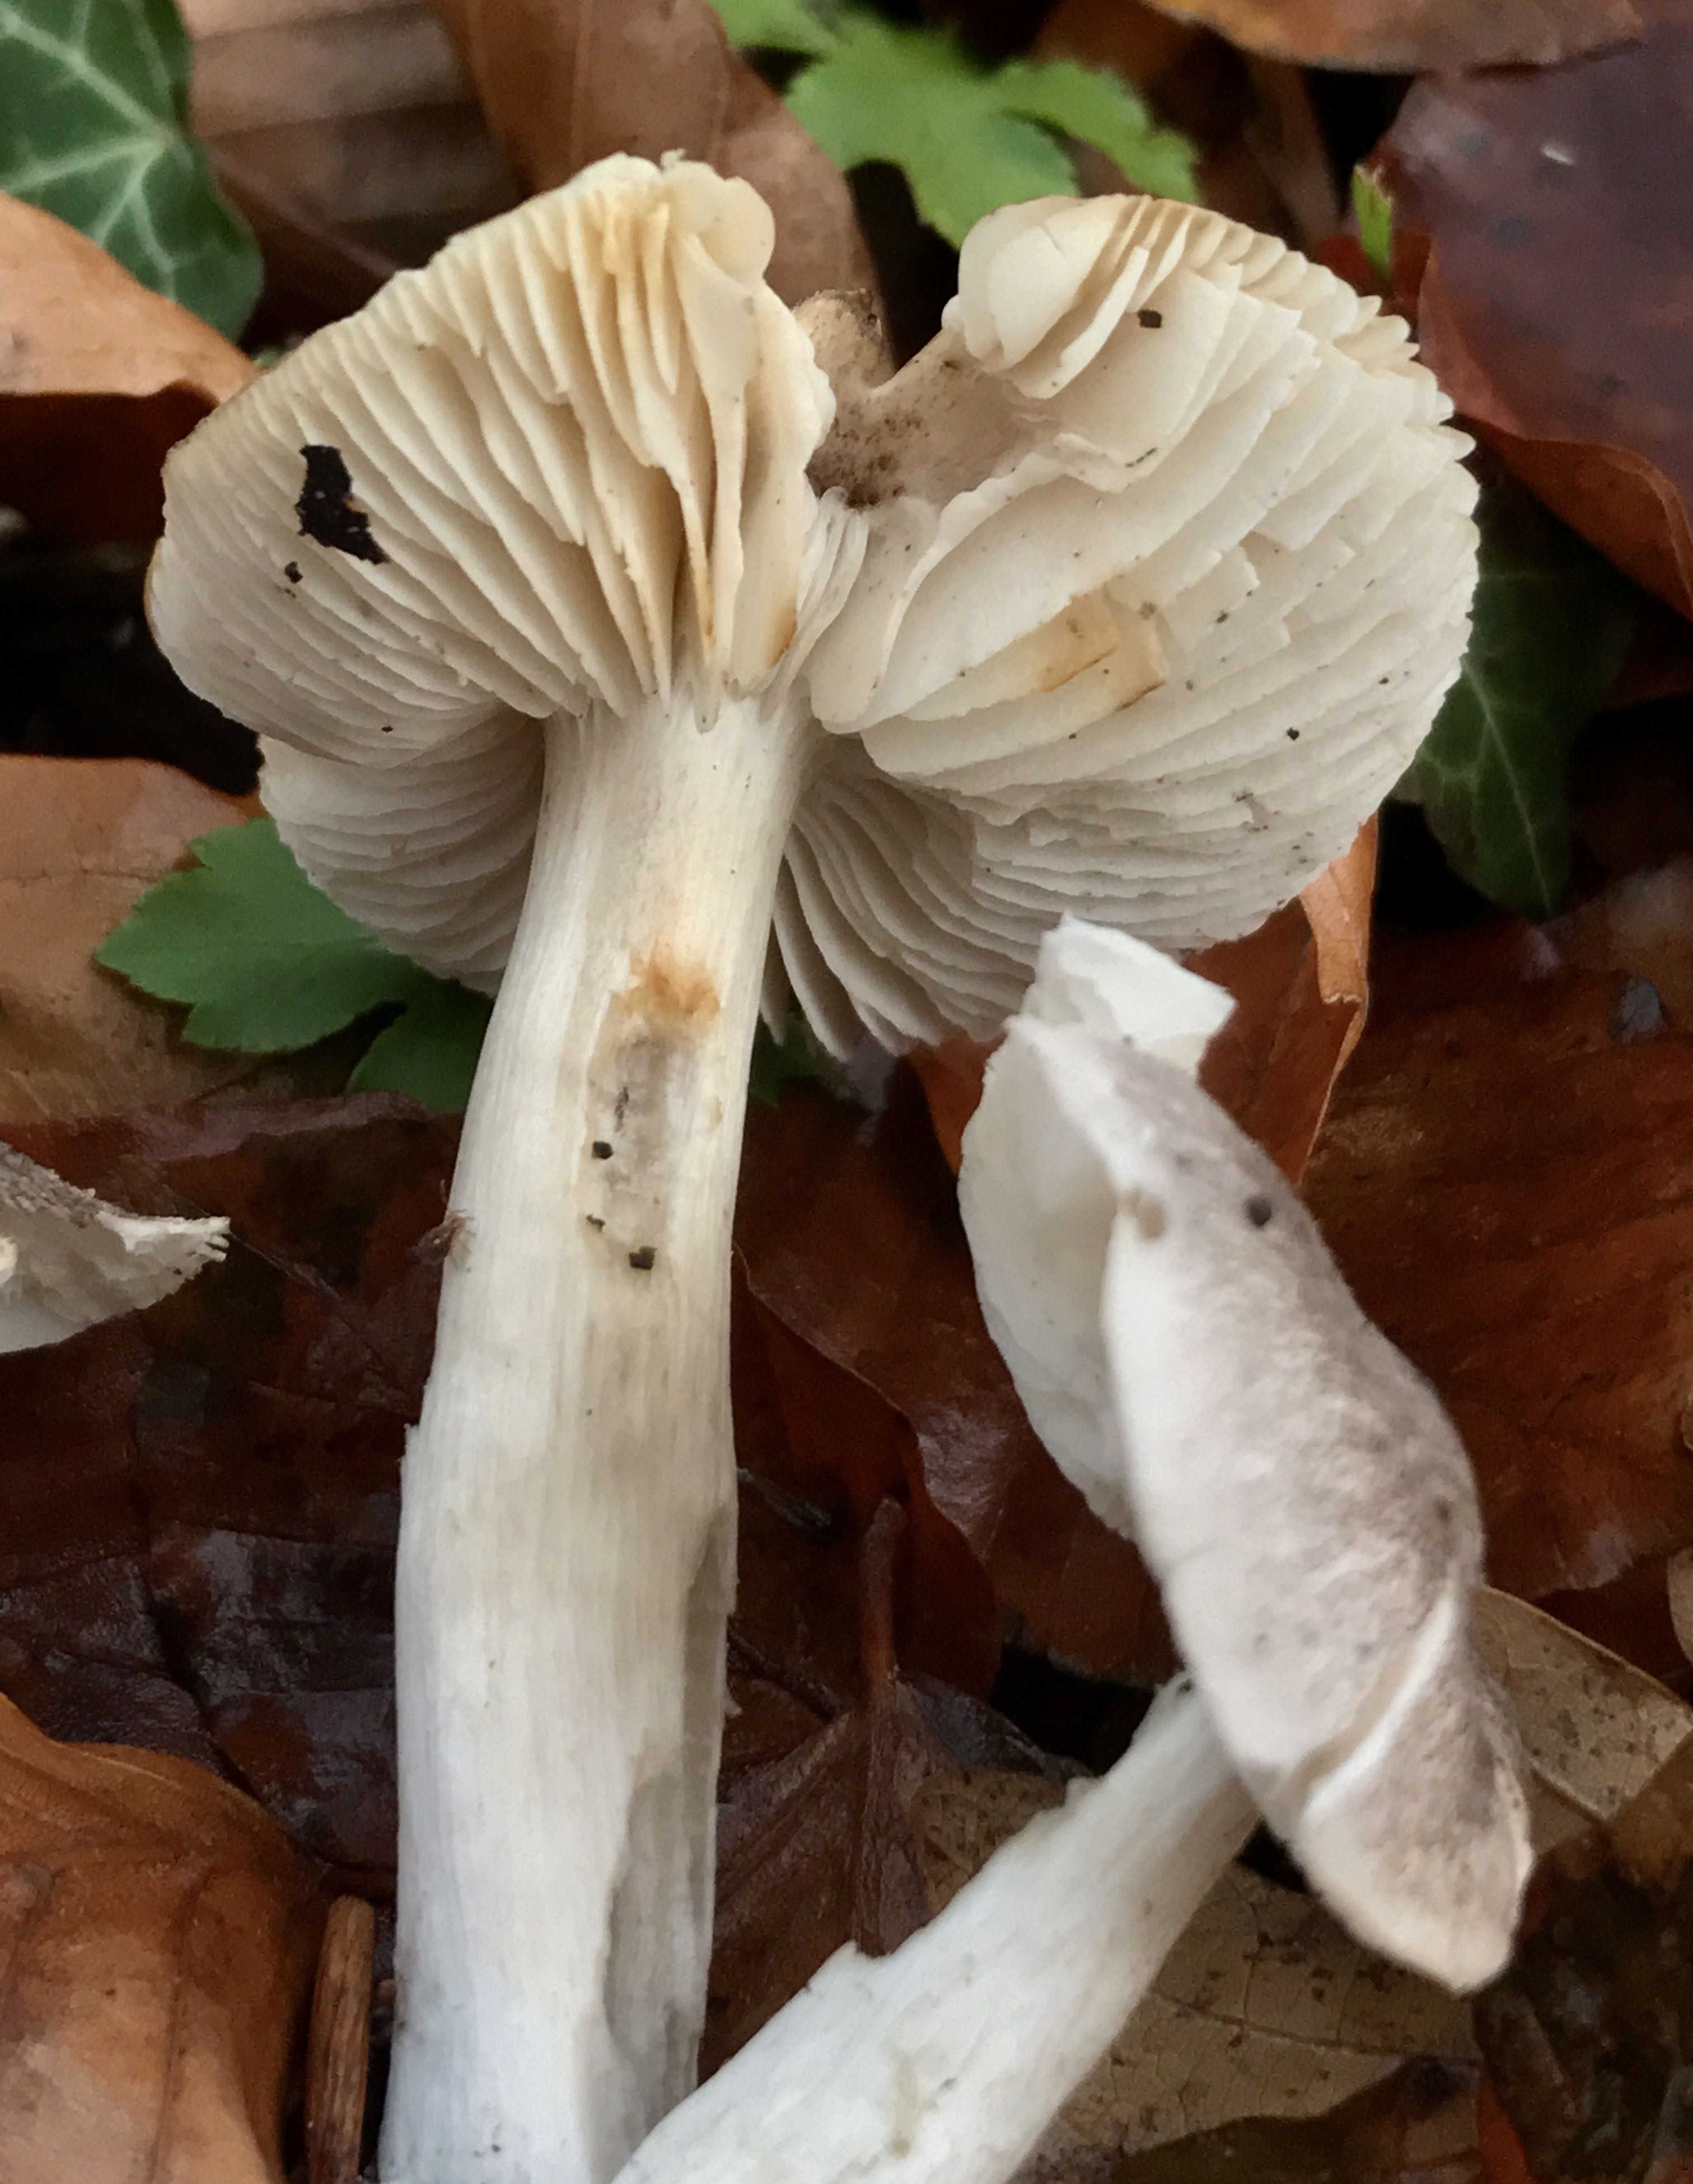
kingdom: Fungi
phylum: Basidiomycota
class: Agaricomycetes
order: Agaricales
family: Tricholomataceae
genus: Tricholoma
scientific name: Tricholoma scalpturatum
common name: gulplettet ridderhat
